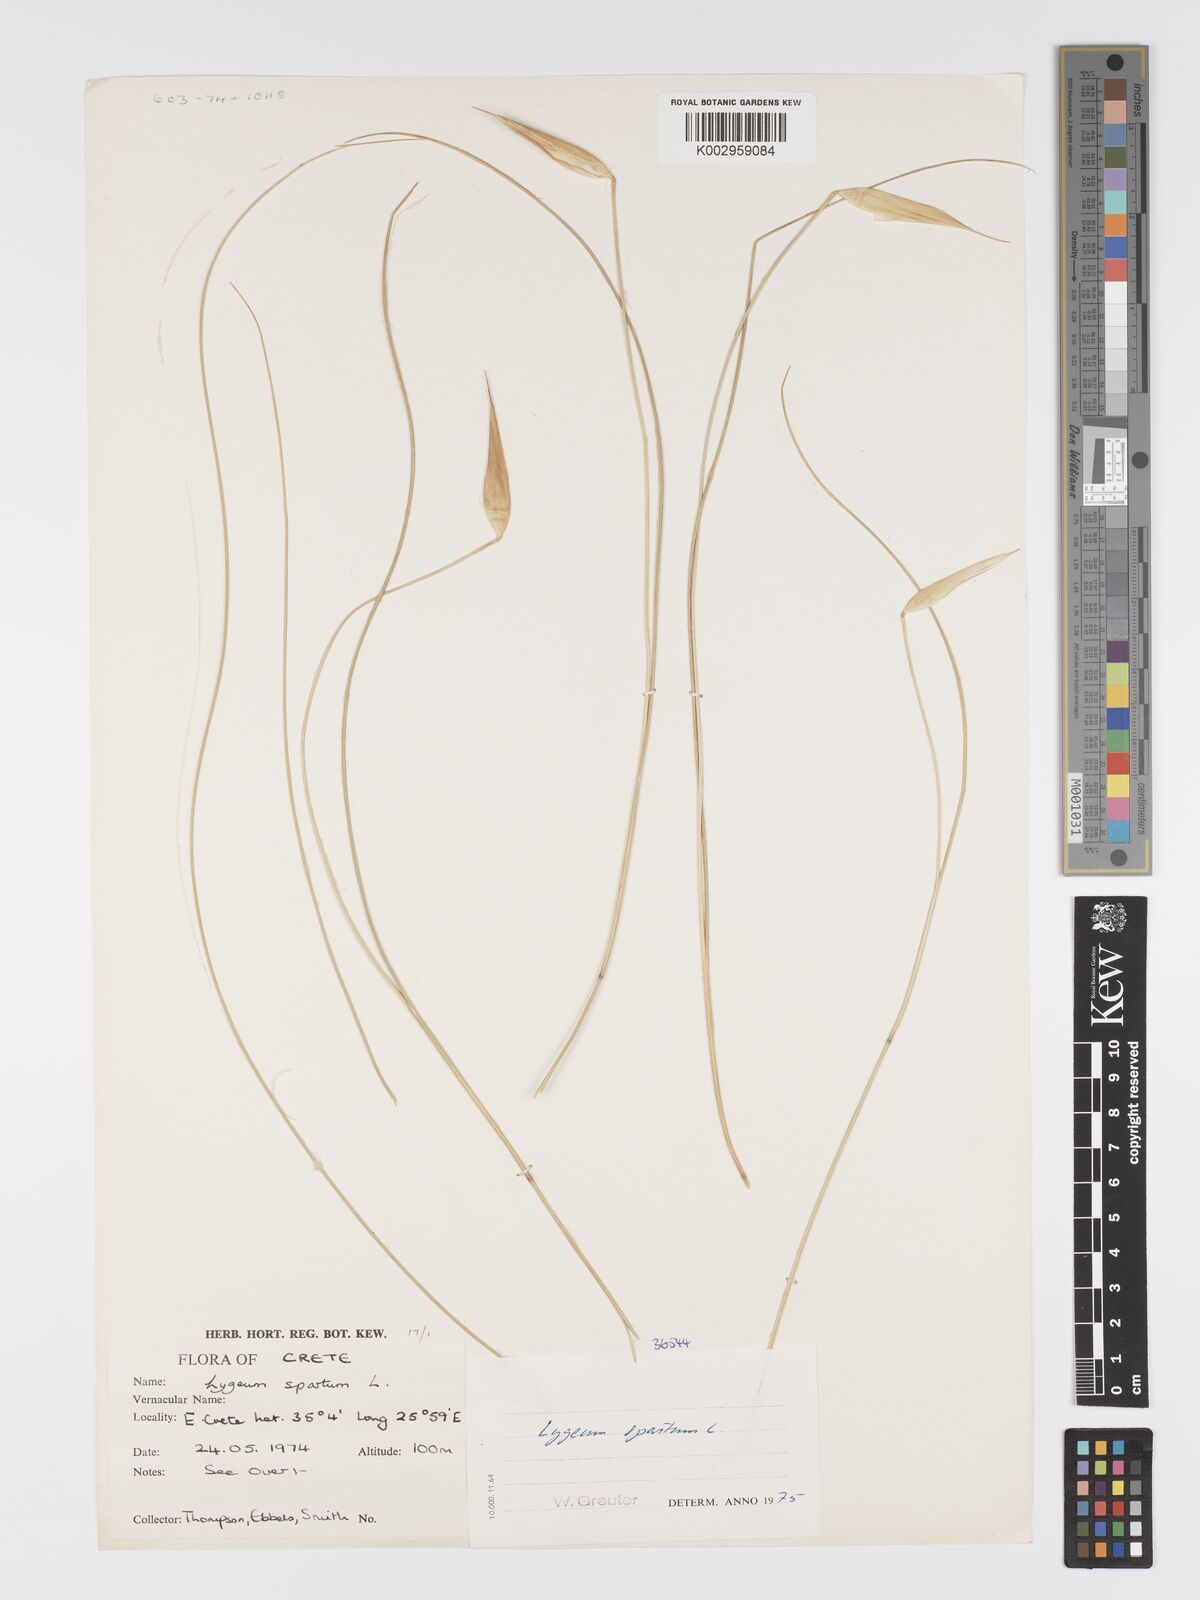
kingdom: Plantae
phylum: Tracheophyta
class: Liliopsida
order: Poales
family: Poaceae
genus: Lygeum
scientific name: Lygeum spartum
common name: Albardine
